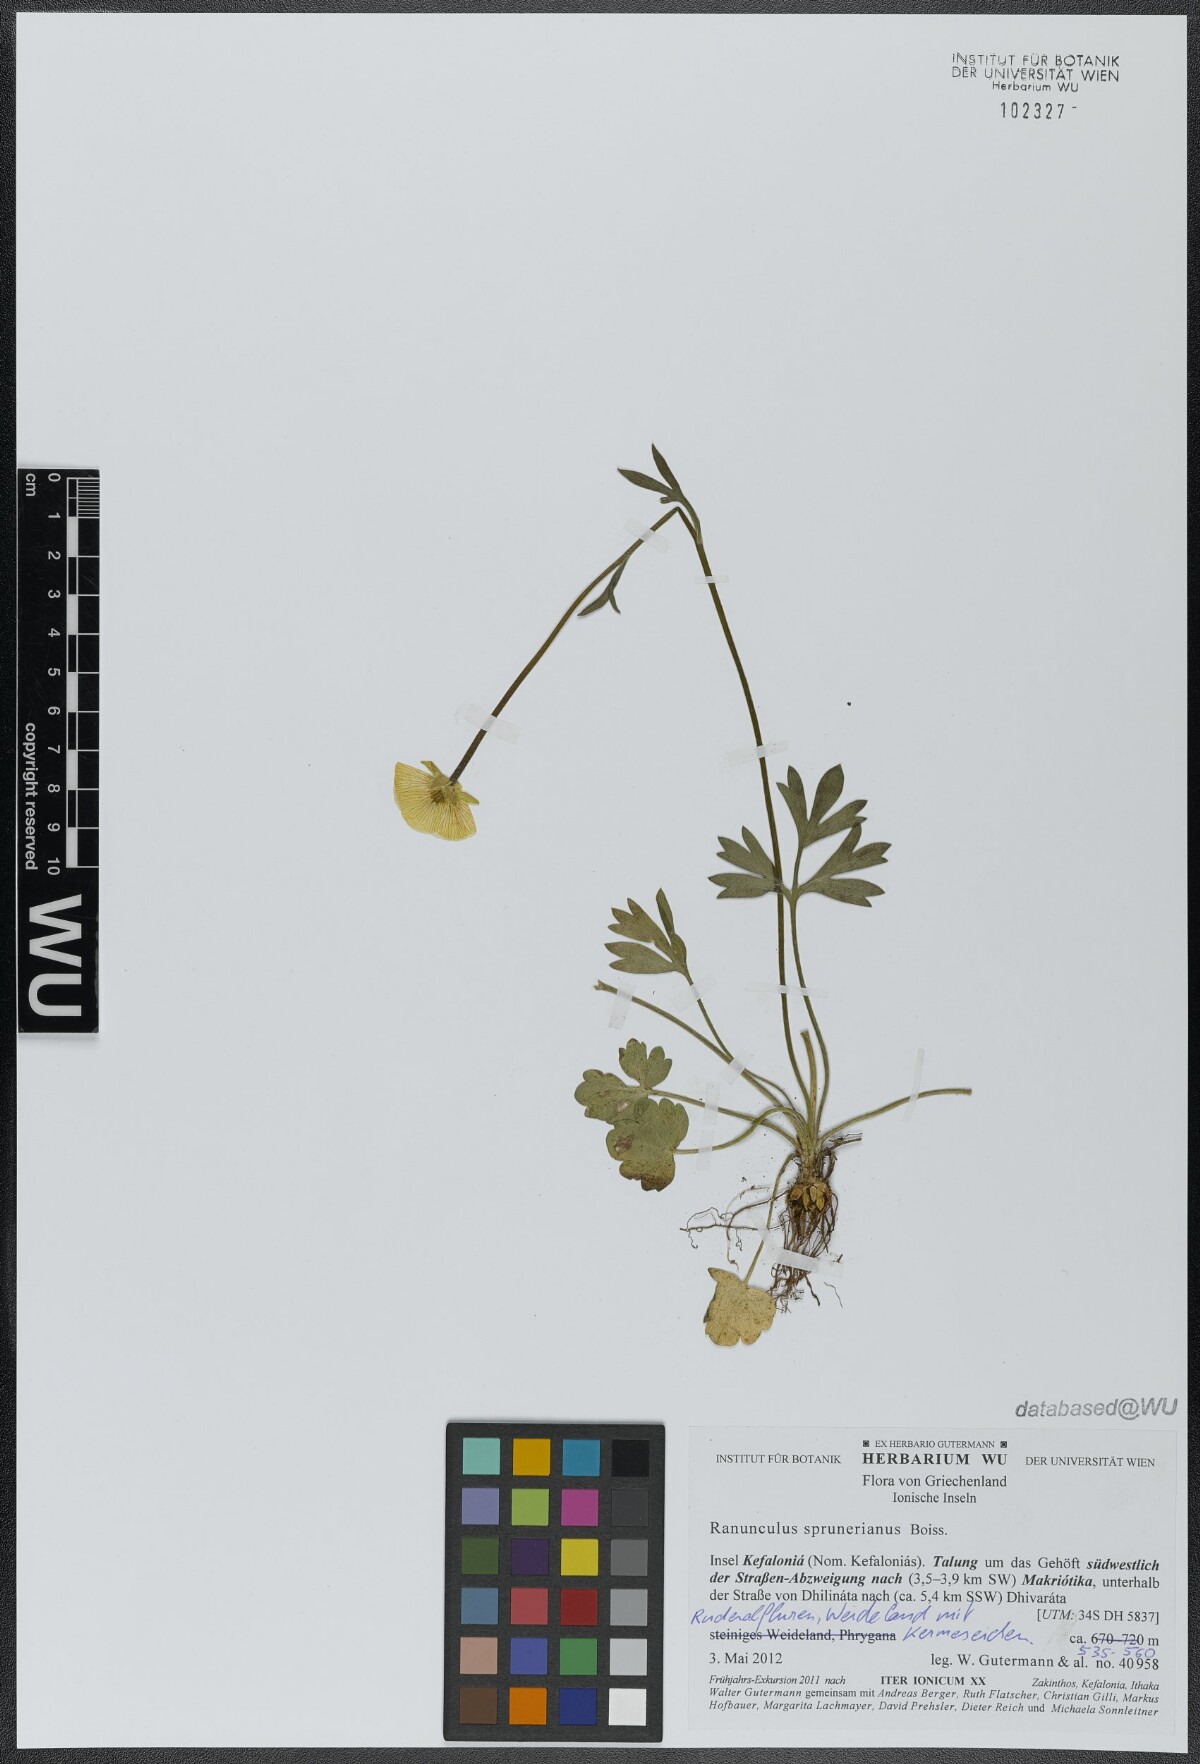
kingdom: Plantae
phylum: Tracheophyta
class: Magnoliopsida
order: Ranunculales
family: Ranunculaceae
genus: Ranunculus
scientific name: Ranunculus sprunerianus
